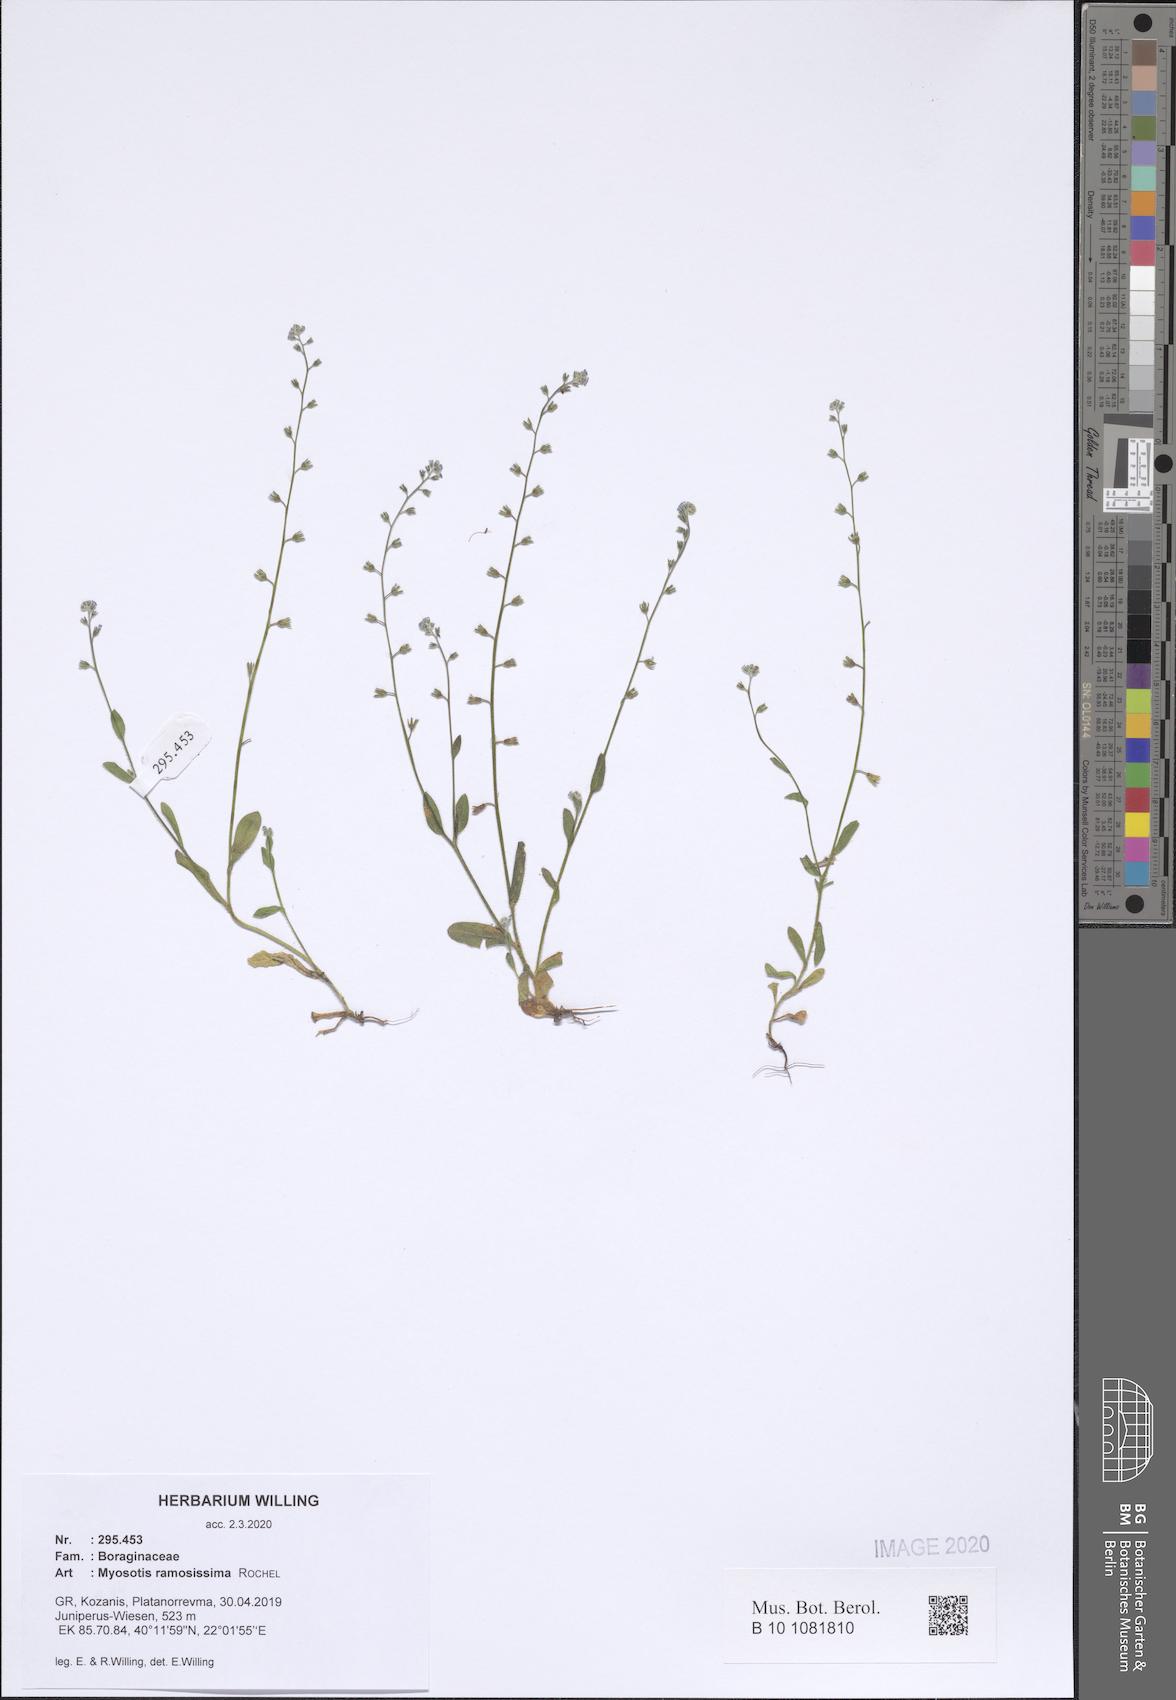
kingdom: Plantae
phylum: Tracheophyta
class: Magnoliopsida
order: Boraginales
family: Boraginaceae
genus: Myosotis
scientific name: Myosotis ramosissima
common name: Early forget-me-not
